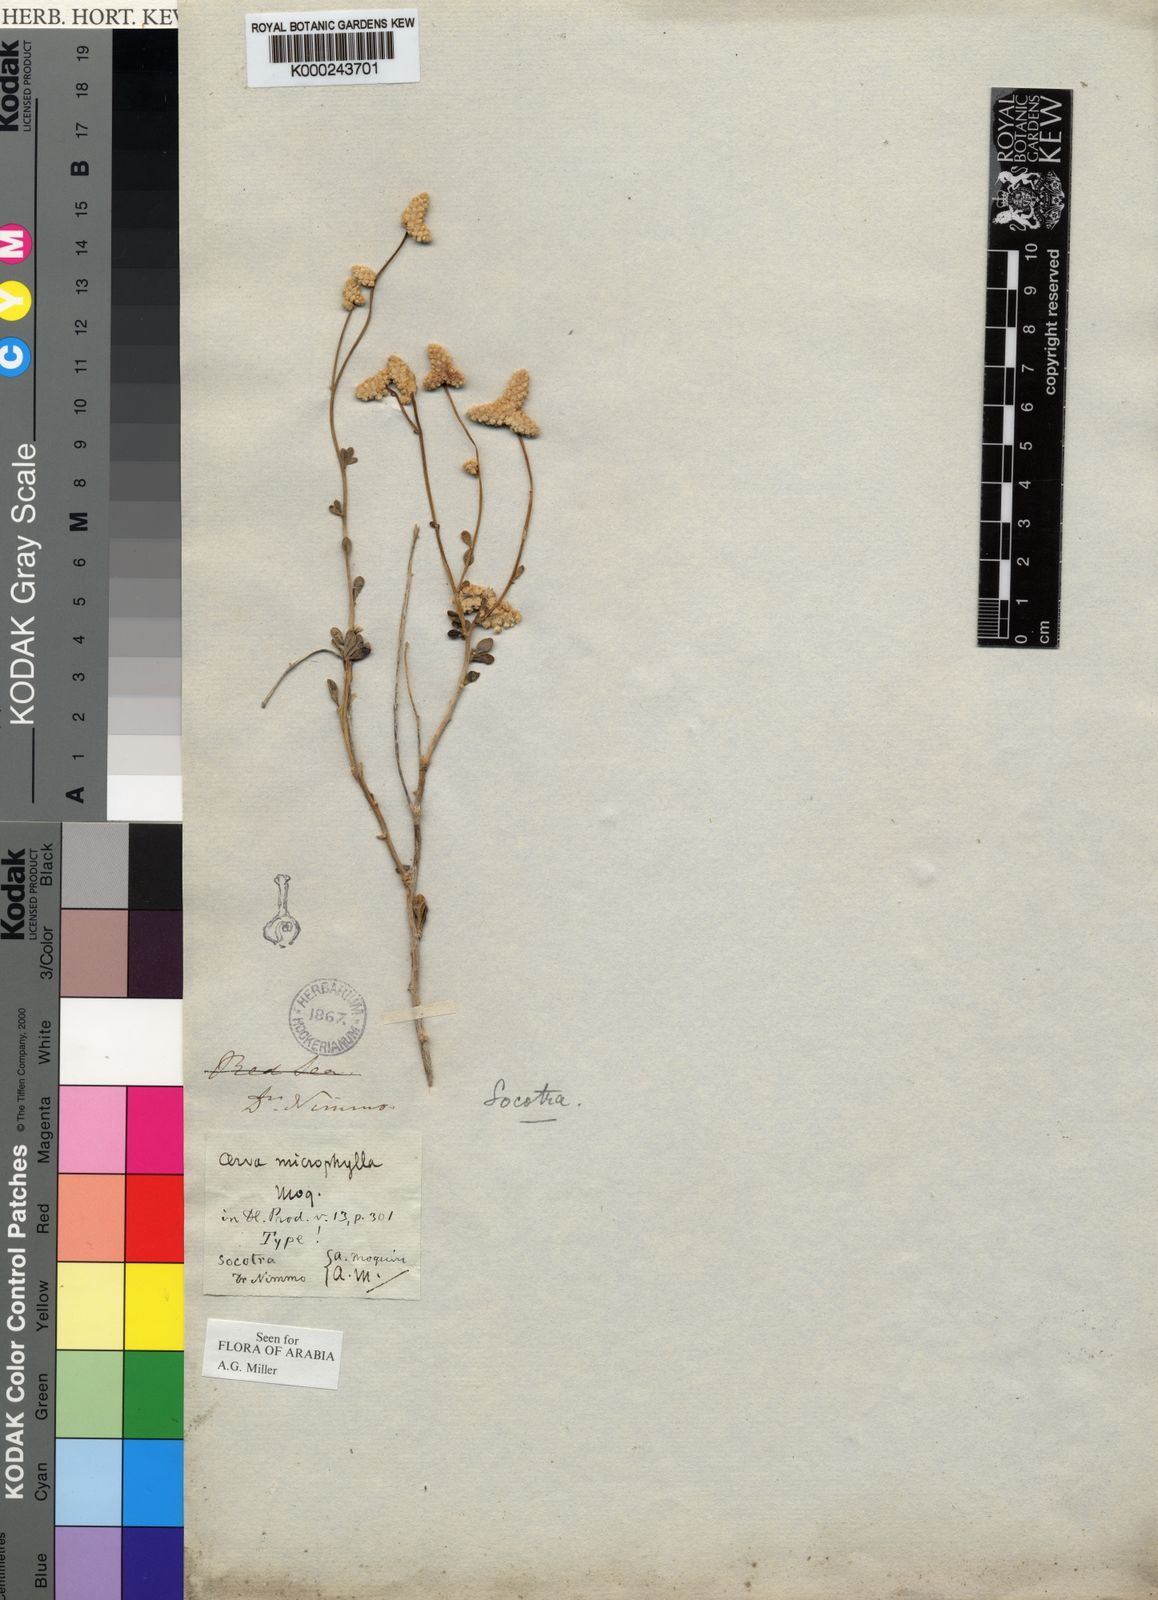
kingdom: Plantae
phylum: Tracheophyta
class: Magnoliopsida
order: Caryophyllales
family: Amaranthaceae
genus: Paraerva
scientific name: Paraerva microphylla
